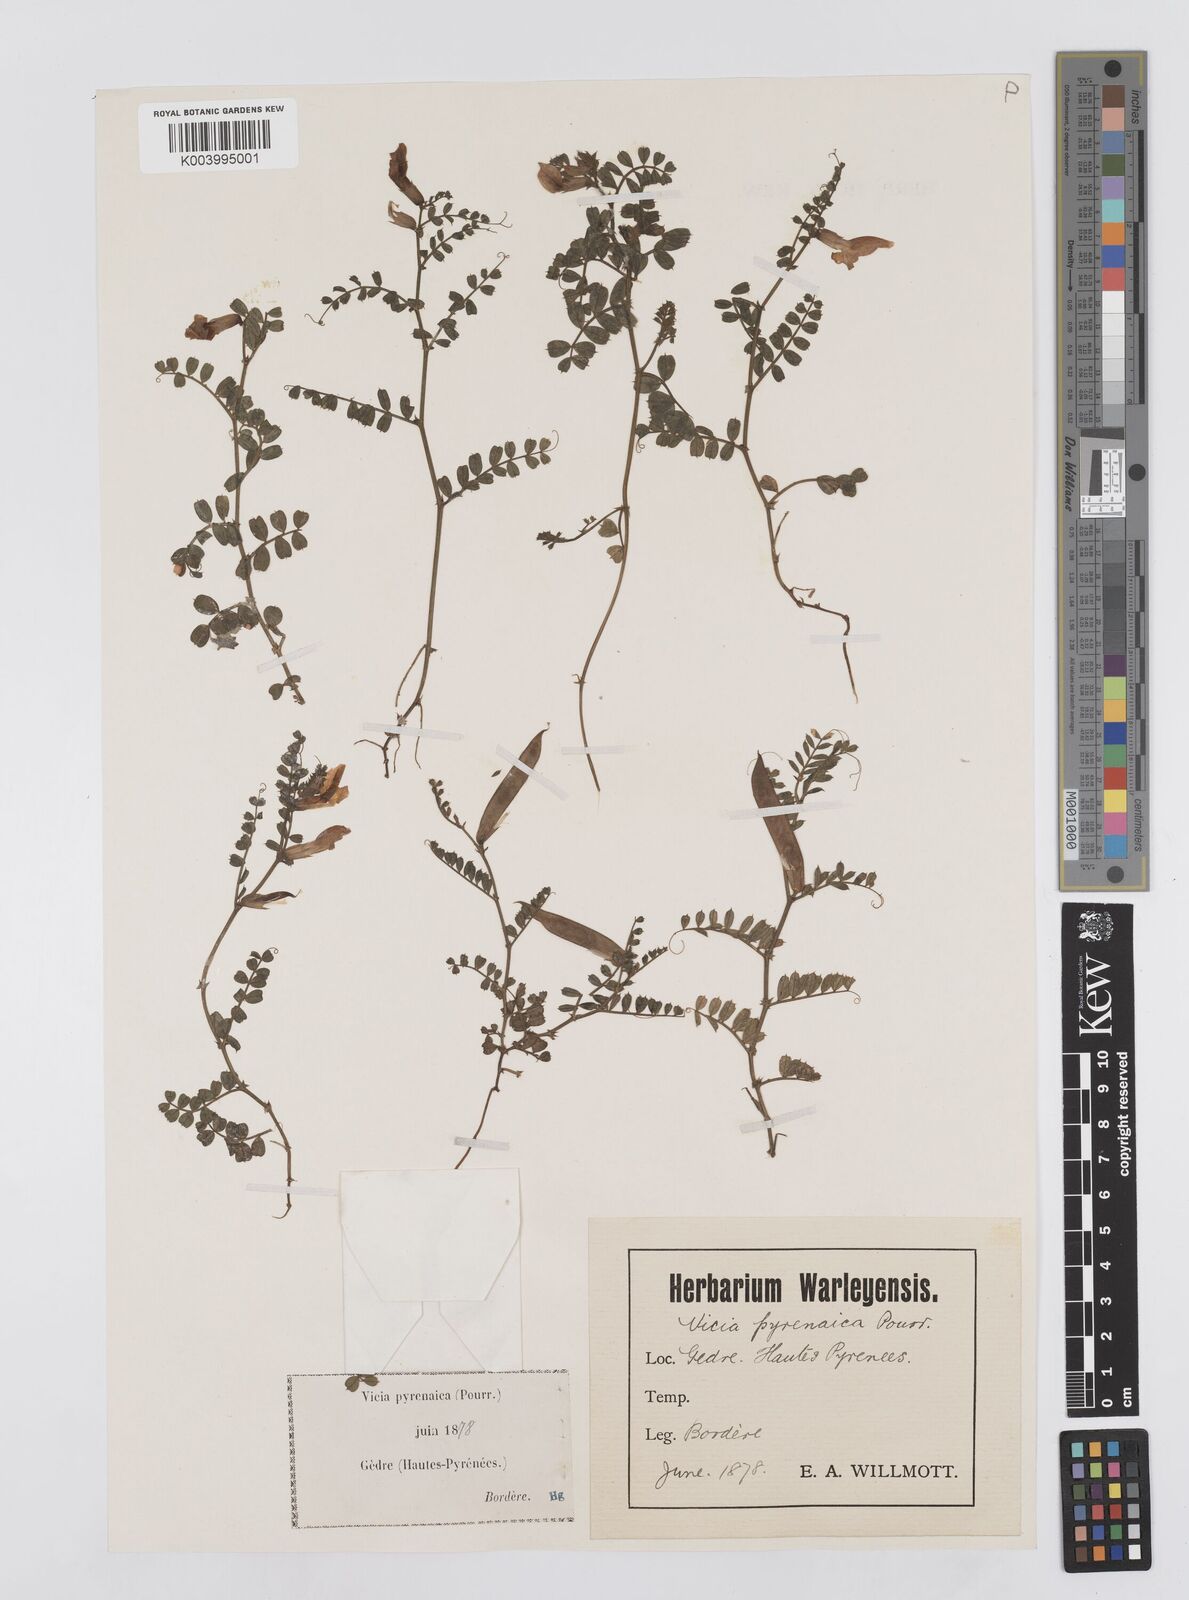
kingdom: Plantae
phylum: Tracheophyta
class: Magnoliopsida
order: Fabales
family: Fabaceae
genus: Vicia
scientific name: Vicia pyrenaica
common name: Pyrenean vetch
